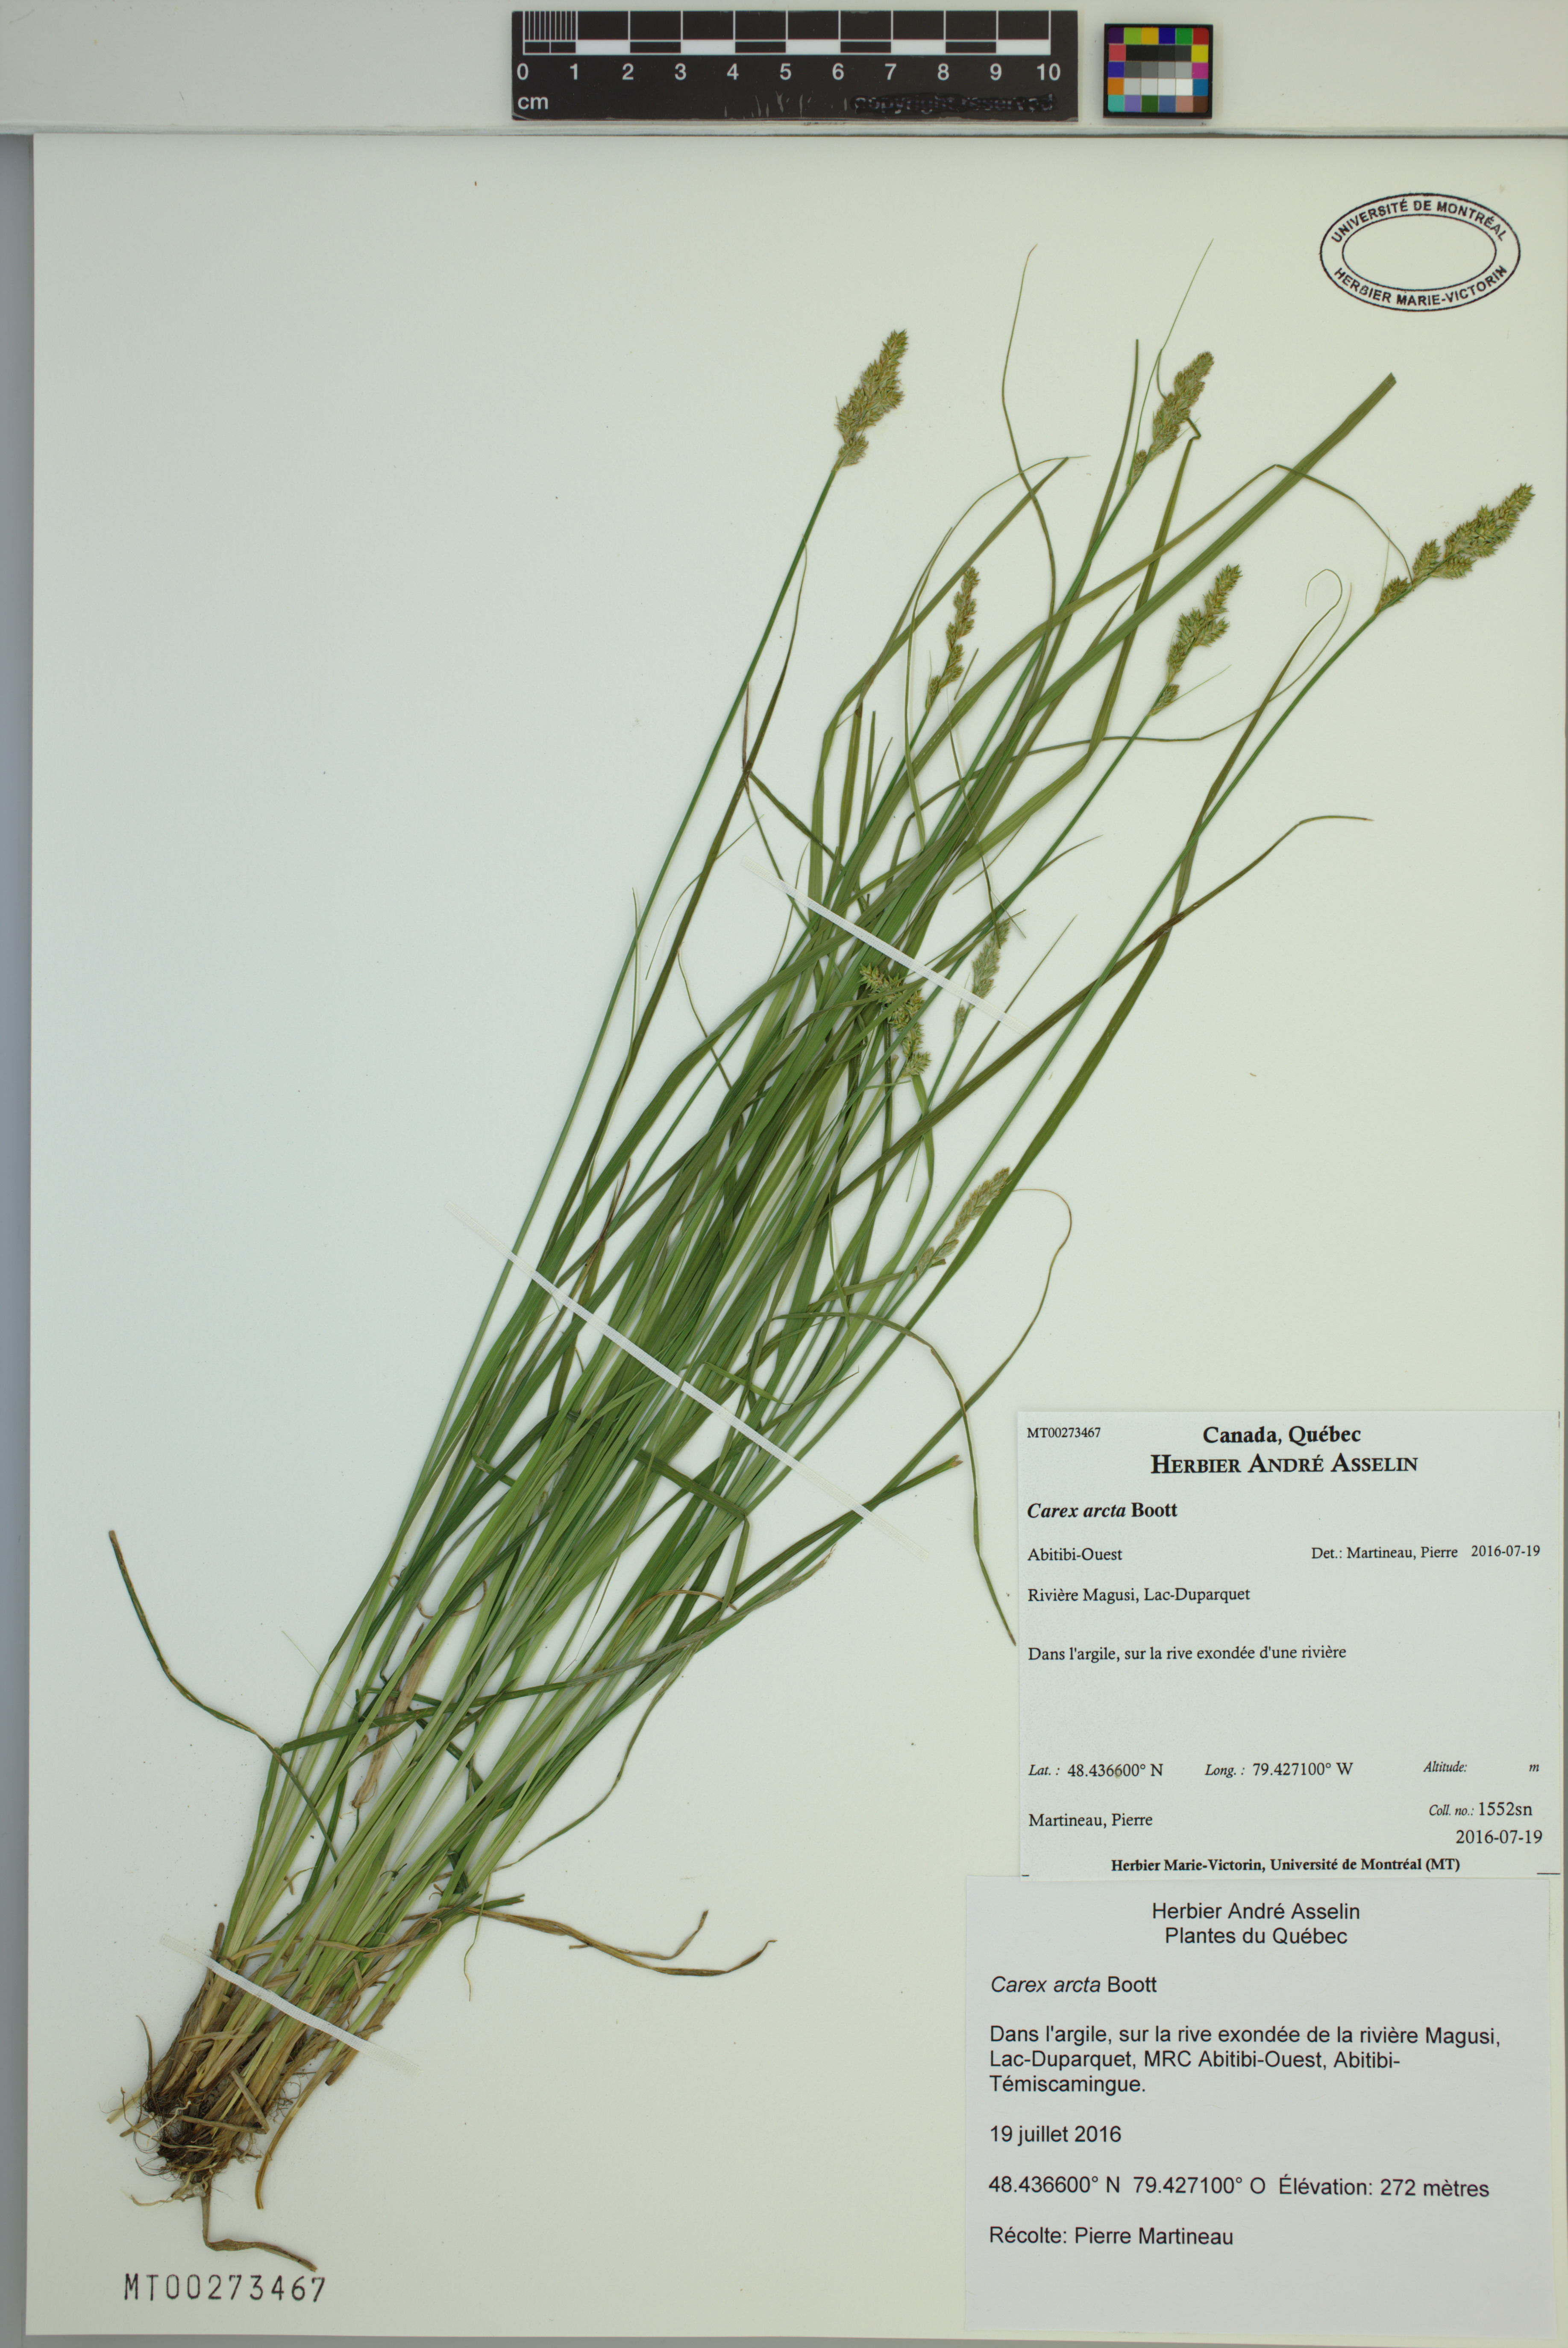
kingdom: Plantae
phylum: Tracheophyta
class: Liliopsida
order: Poales
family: Cyperaceae
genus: Carex
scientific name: Carex arcta
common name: Bear sedge
